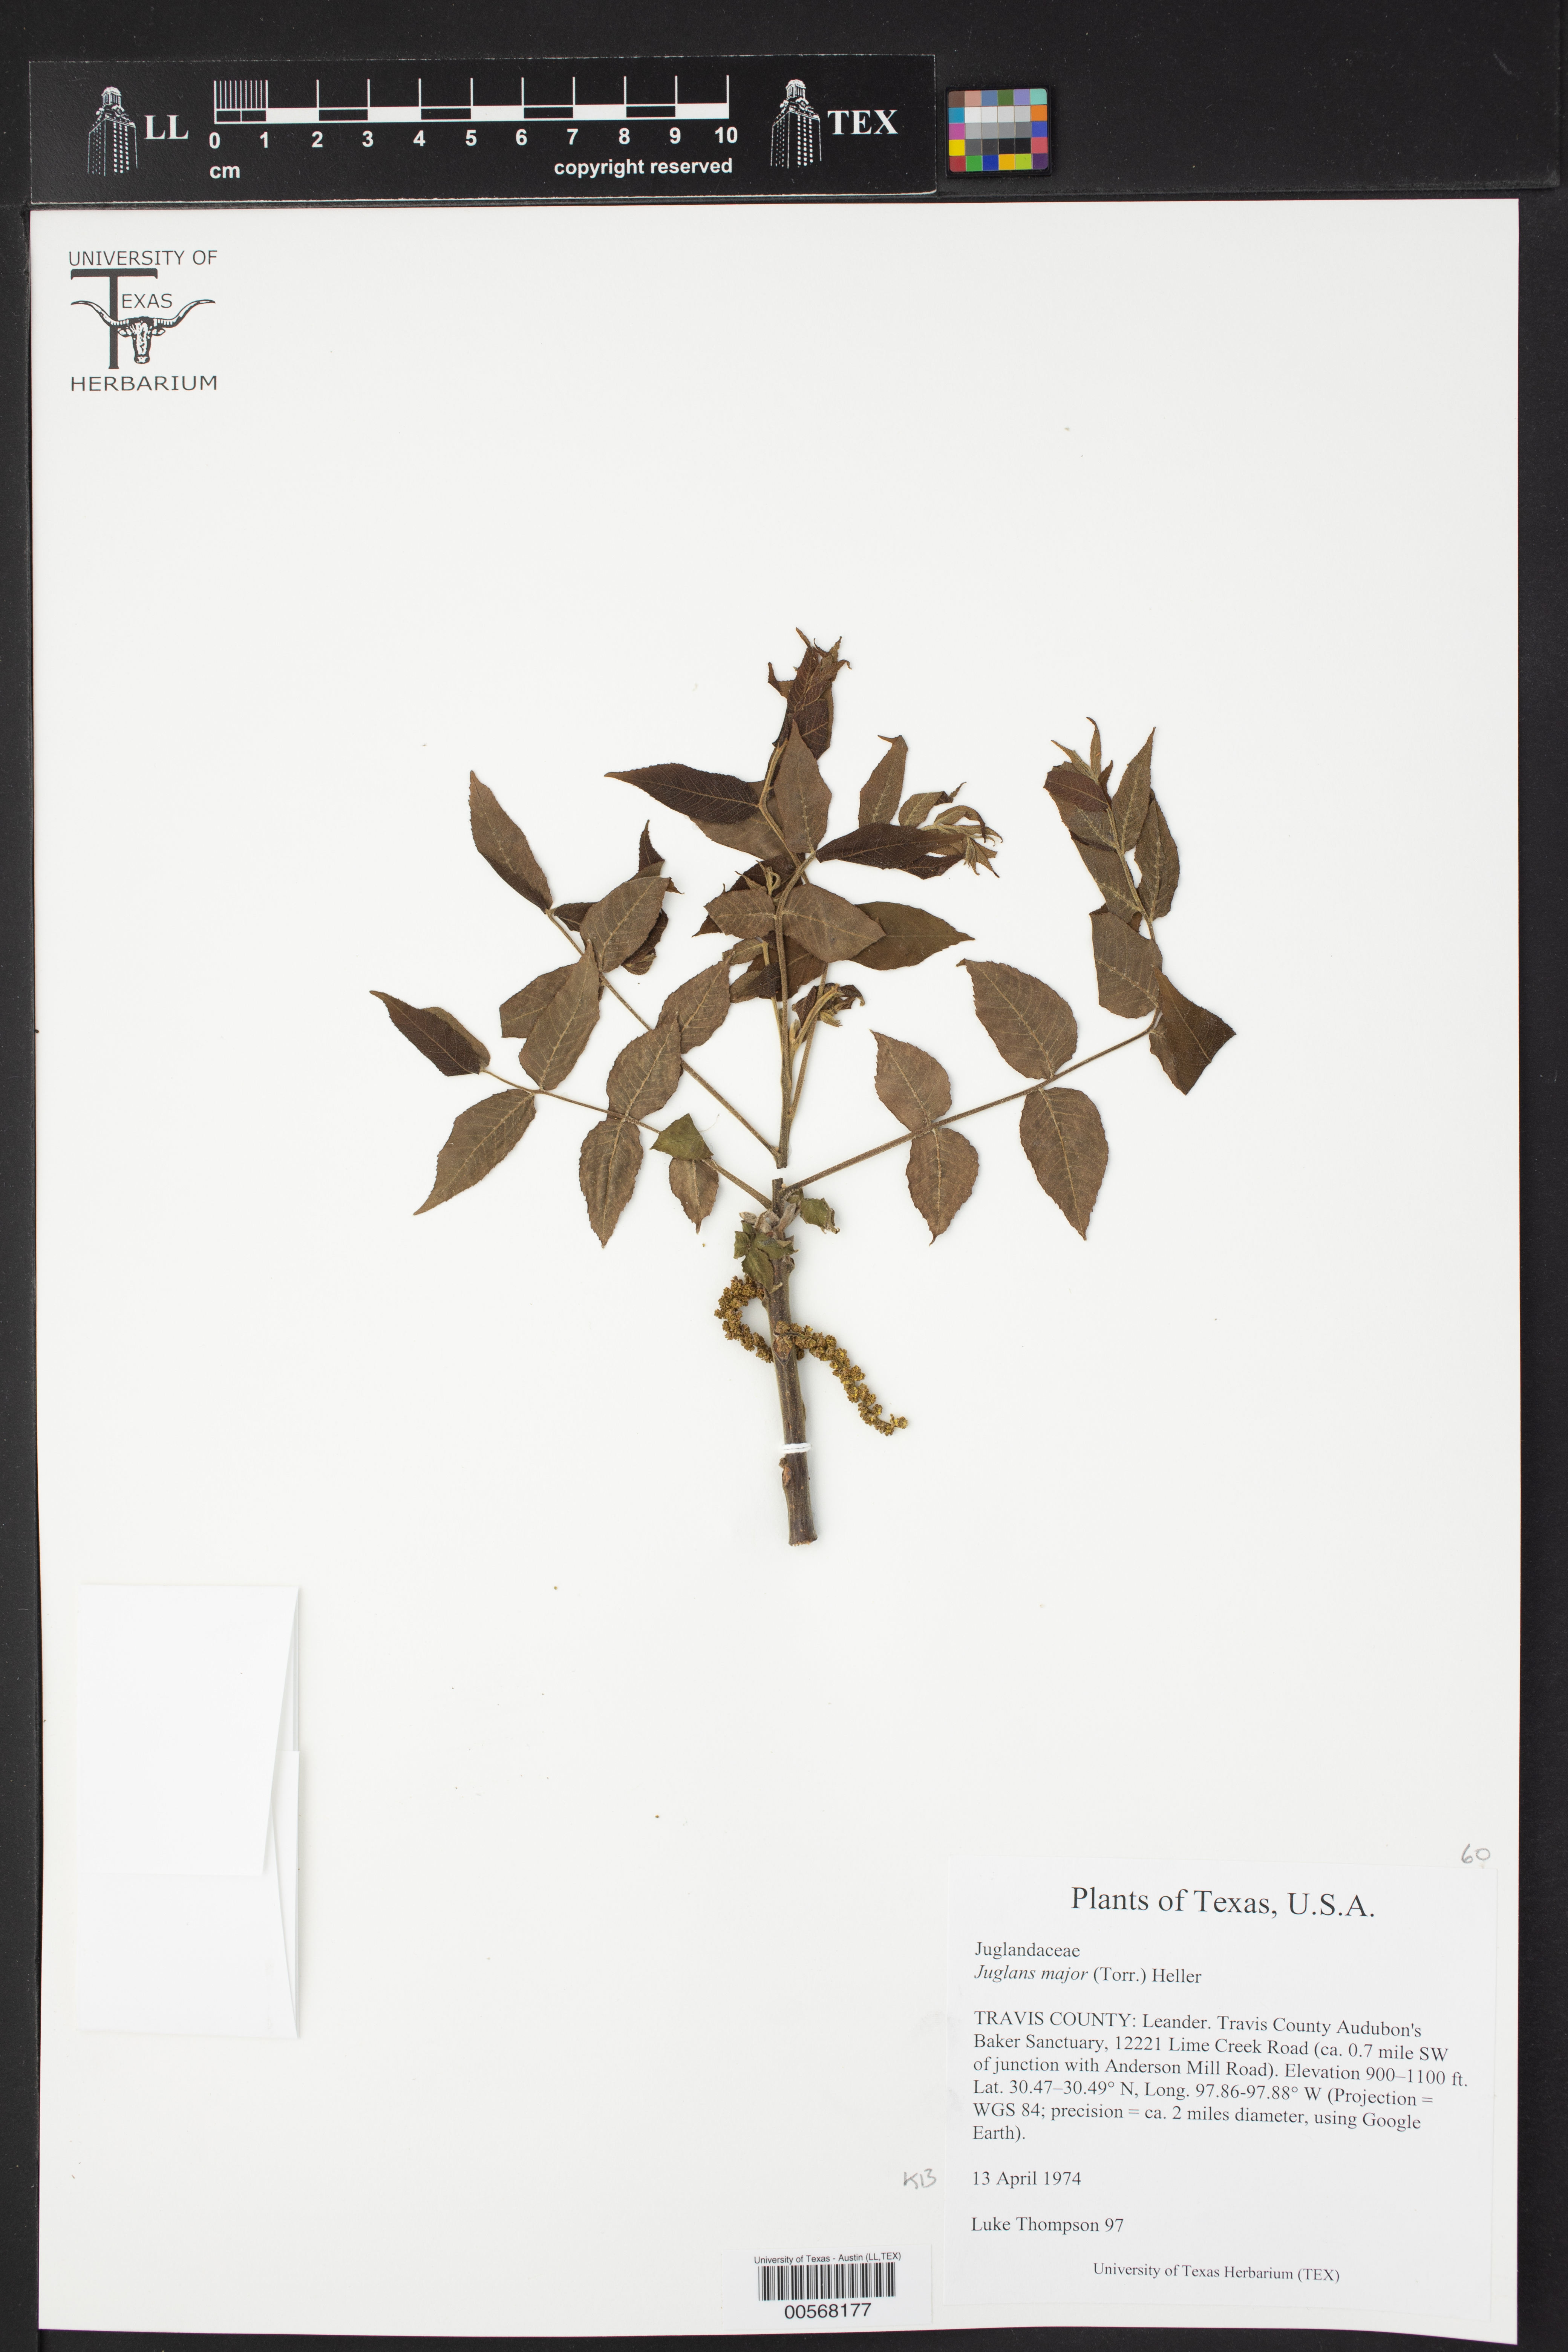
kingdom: Plantae
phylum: Tracheophyta
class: Magnoliopsida
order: Fagales
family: Juglandaceae
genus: Juglans
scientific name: Juglans major
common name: Arizona walnut
